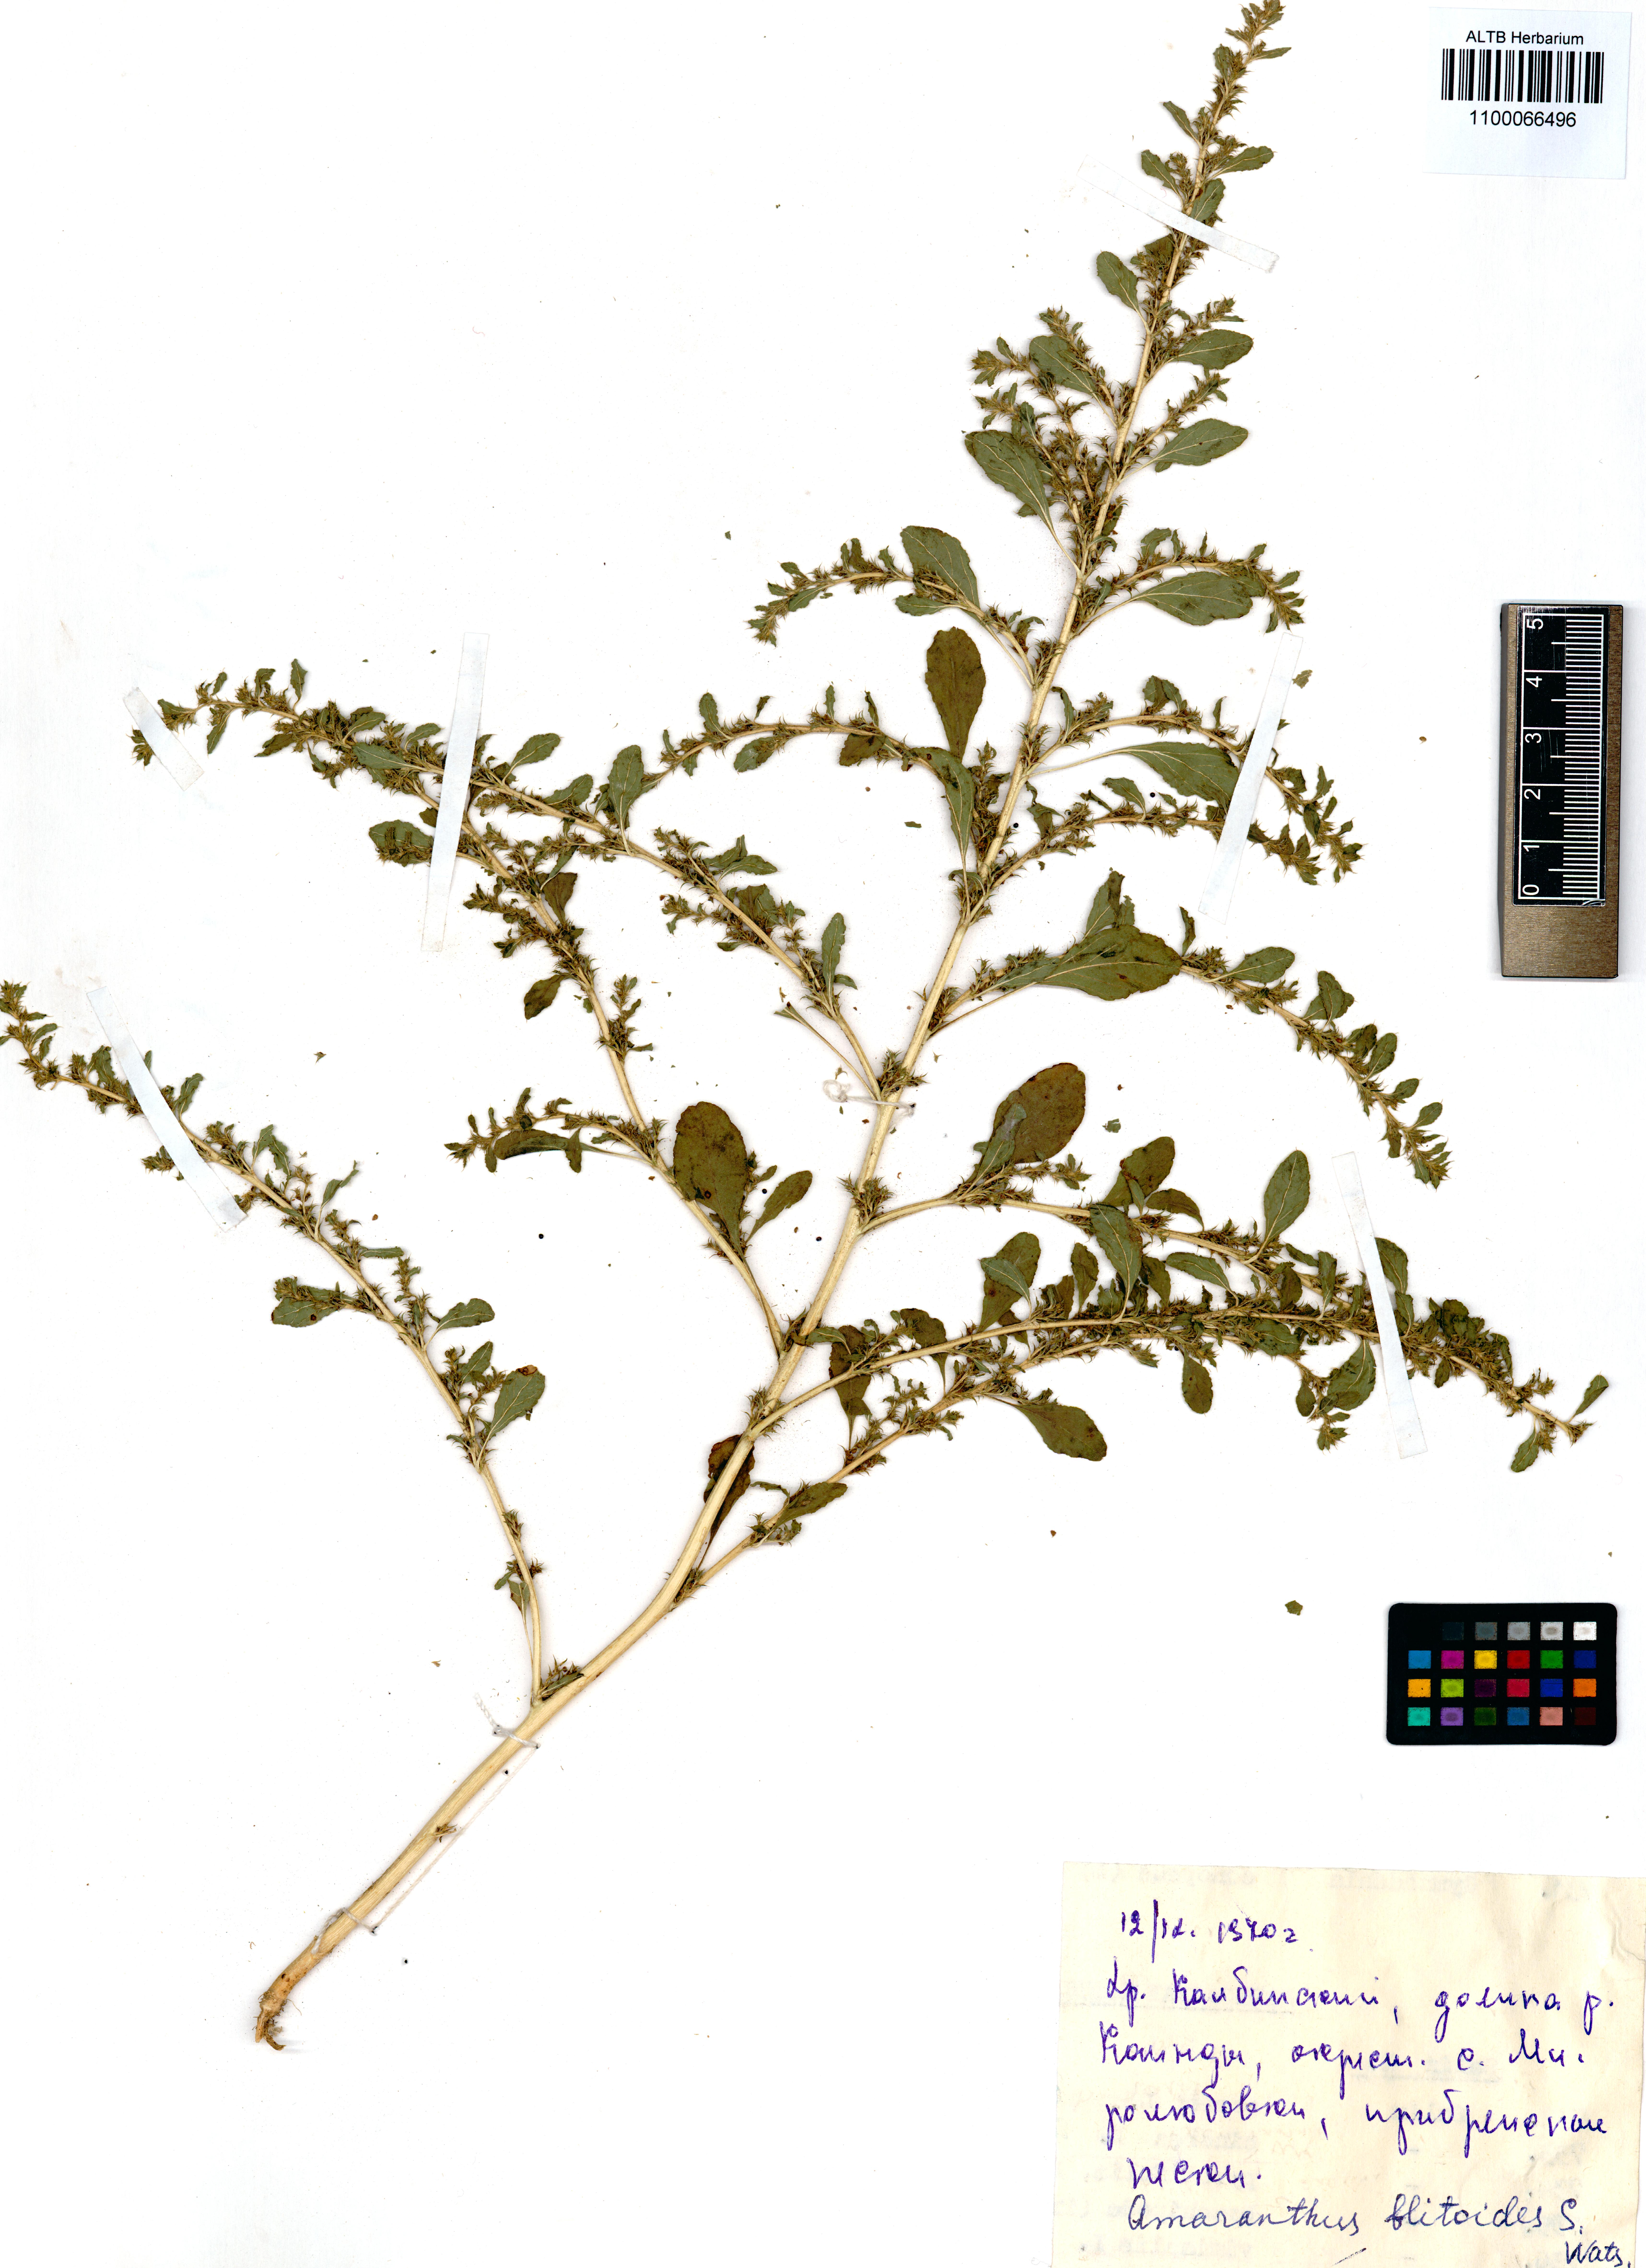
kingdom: Plantae
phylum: Tracheophyta
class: Magnoliopsida
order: Caryophyllales
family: Amaranthaceae
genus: Amaranthus
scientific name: Amaranthus blitoides
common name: Prostrate pigweed
